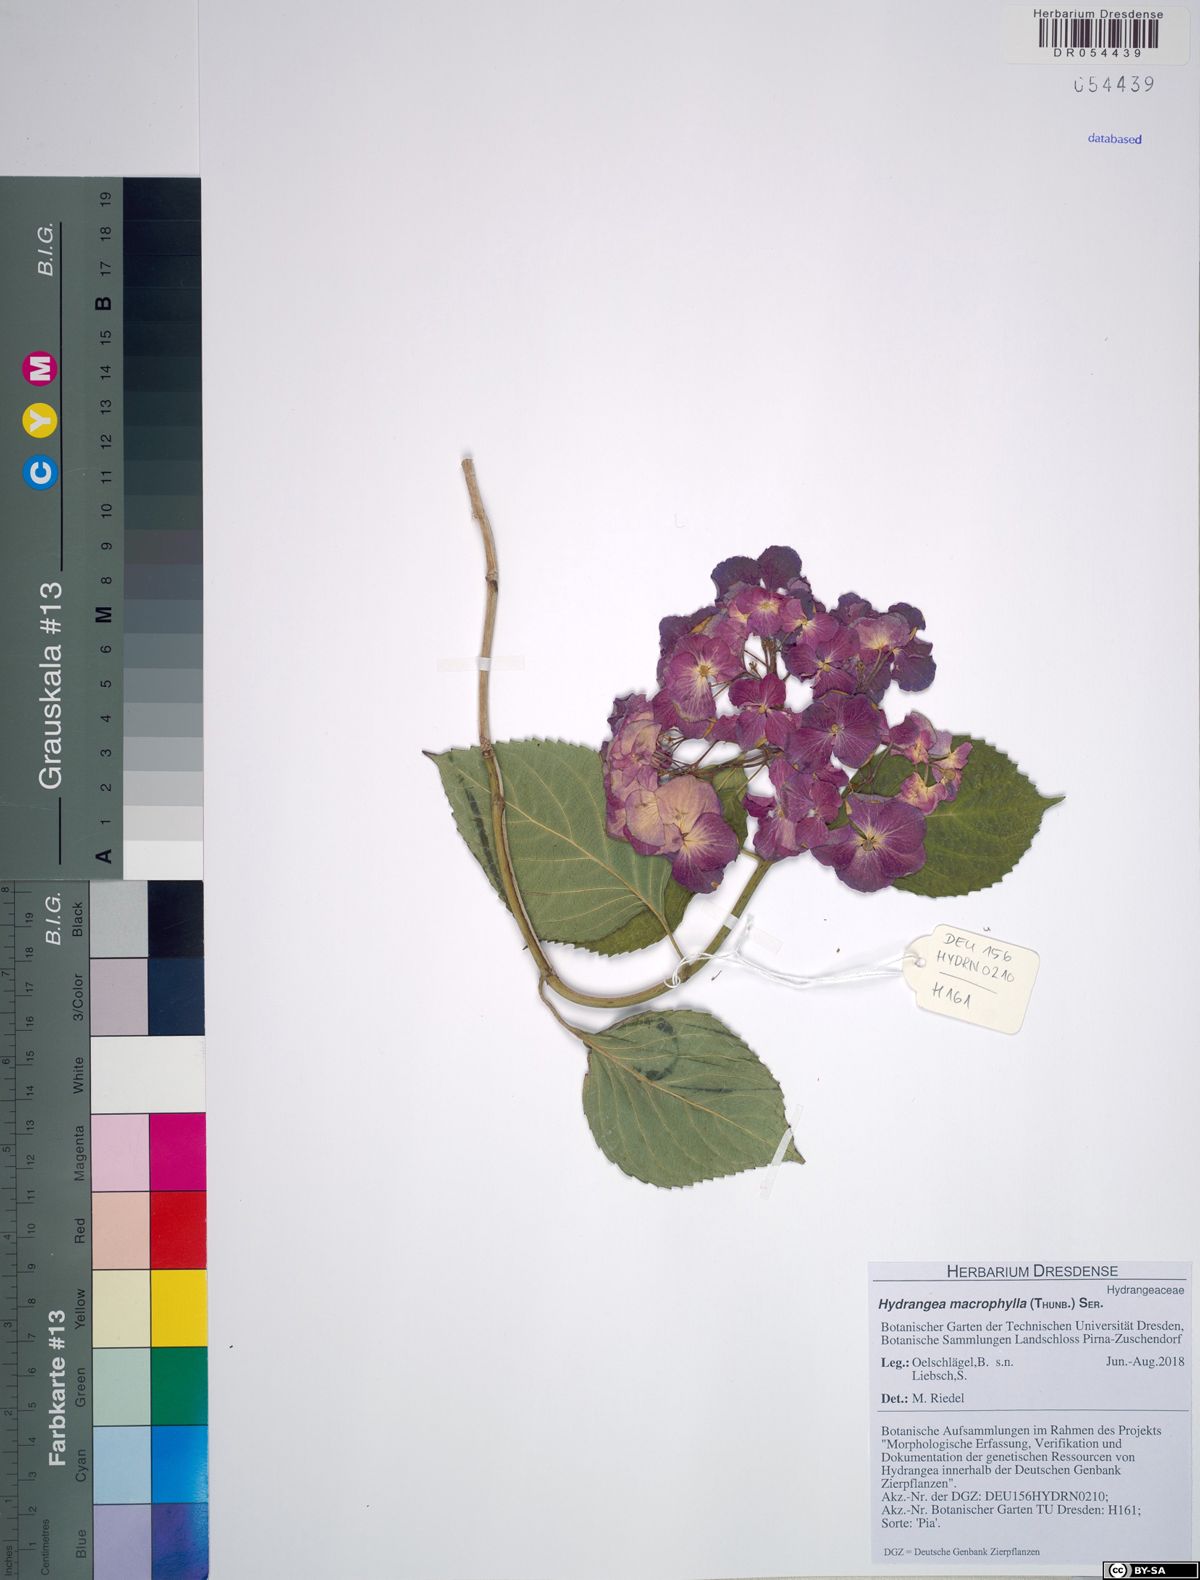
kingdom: Plantae
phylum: Tracheophyta
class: Magnoliopsida
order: Cornales
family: Hydrangeaceae
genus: Hydrangea
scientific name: Hydrangea macrophylla
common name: Hydrangea
